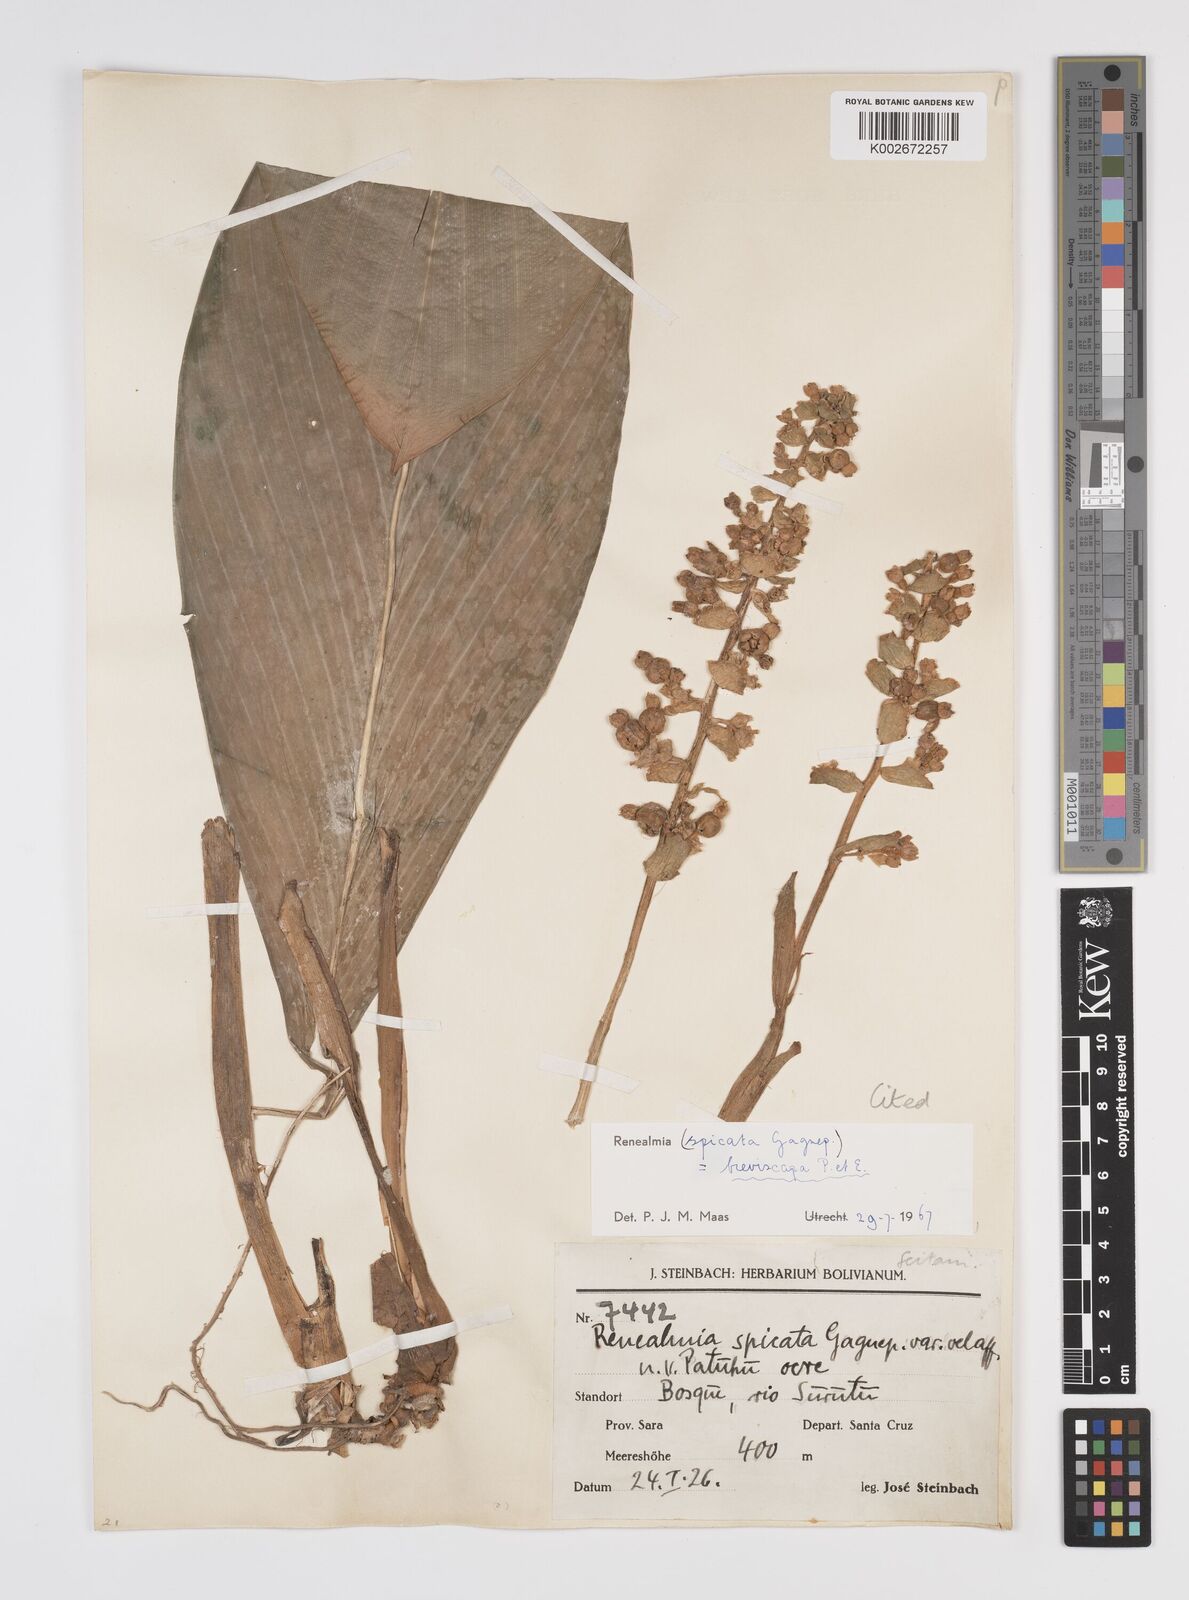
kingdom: Plantae
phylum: Tracheophyta
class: Liliopsida
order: Zingiberales
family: Zingiberaceae
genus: Renealmia
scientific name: Renealmia breviscapa
